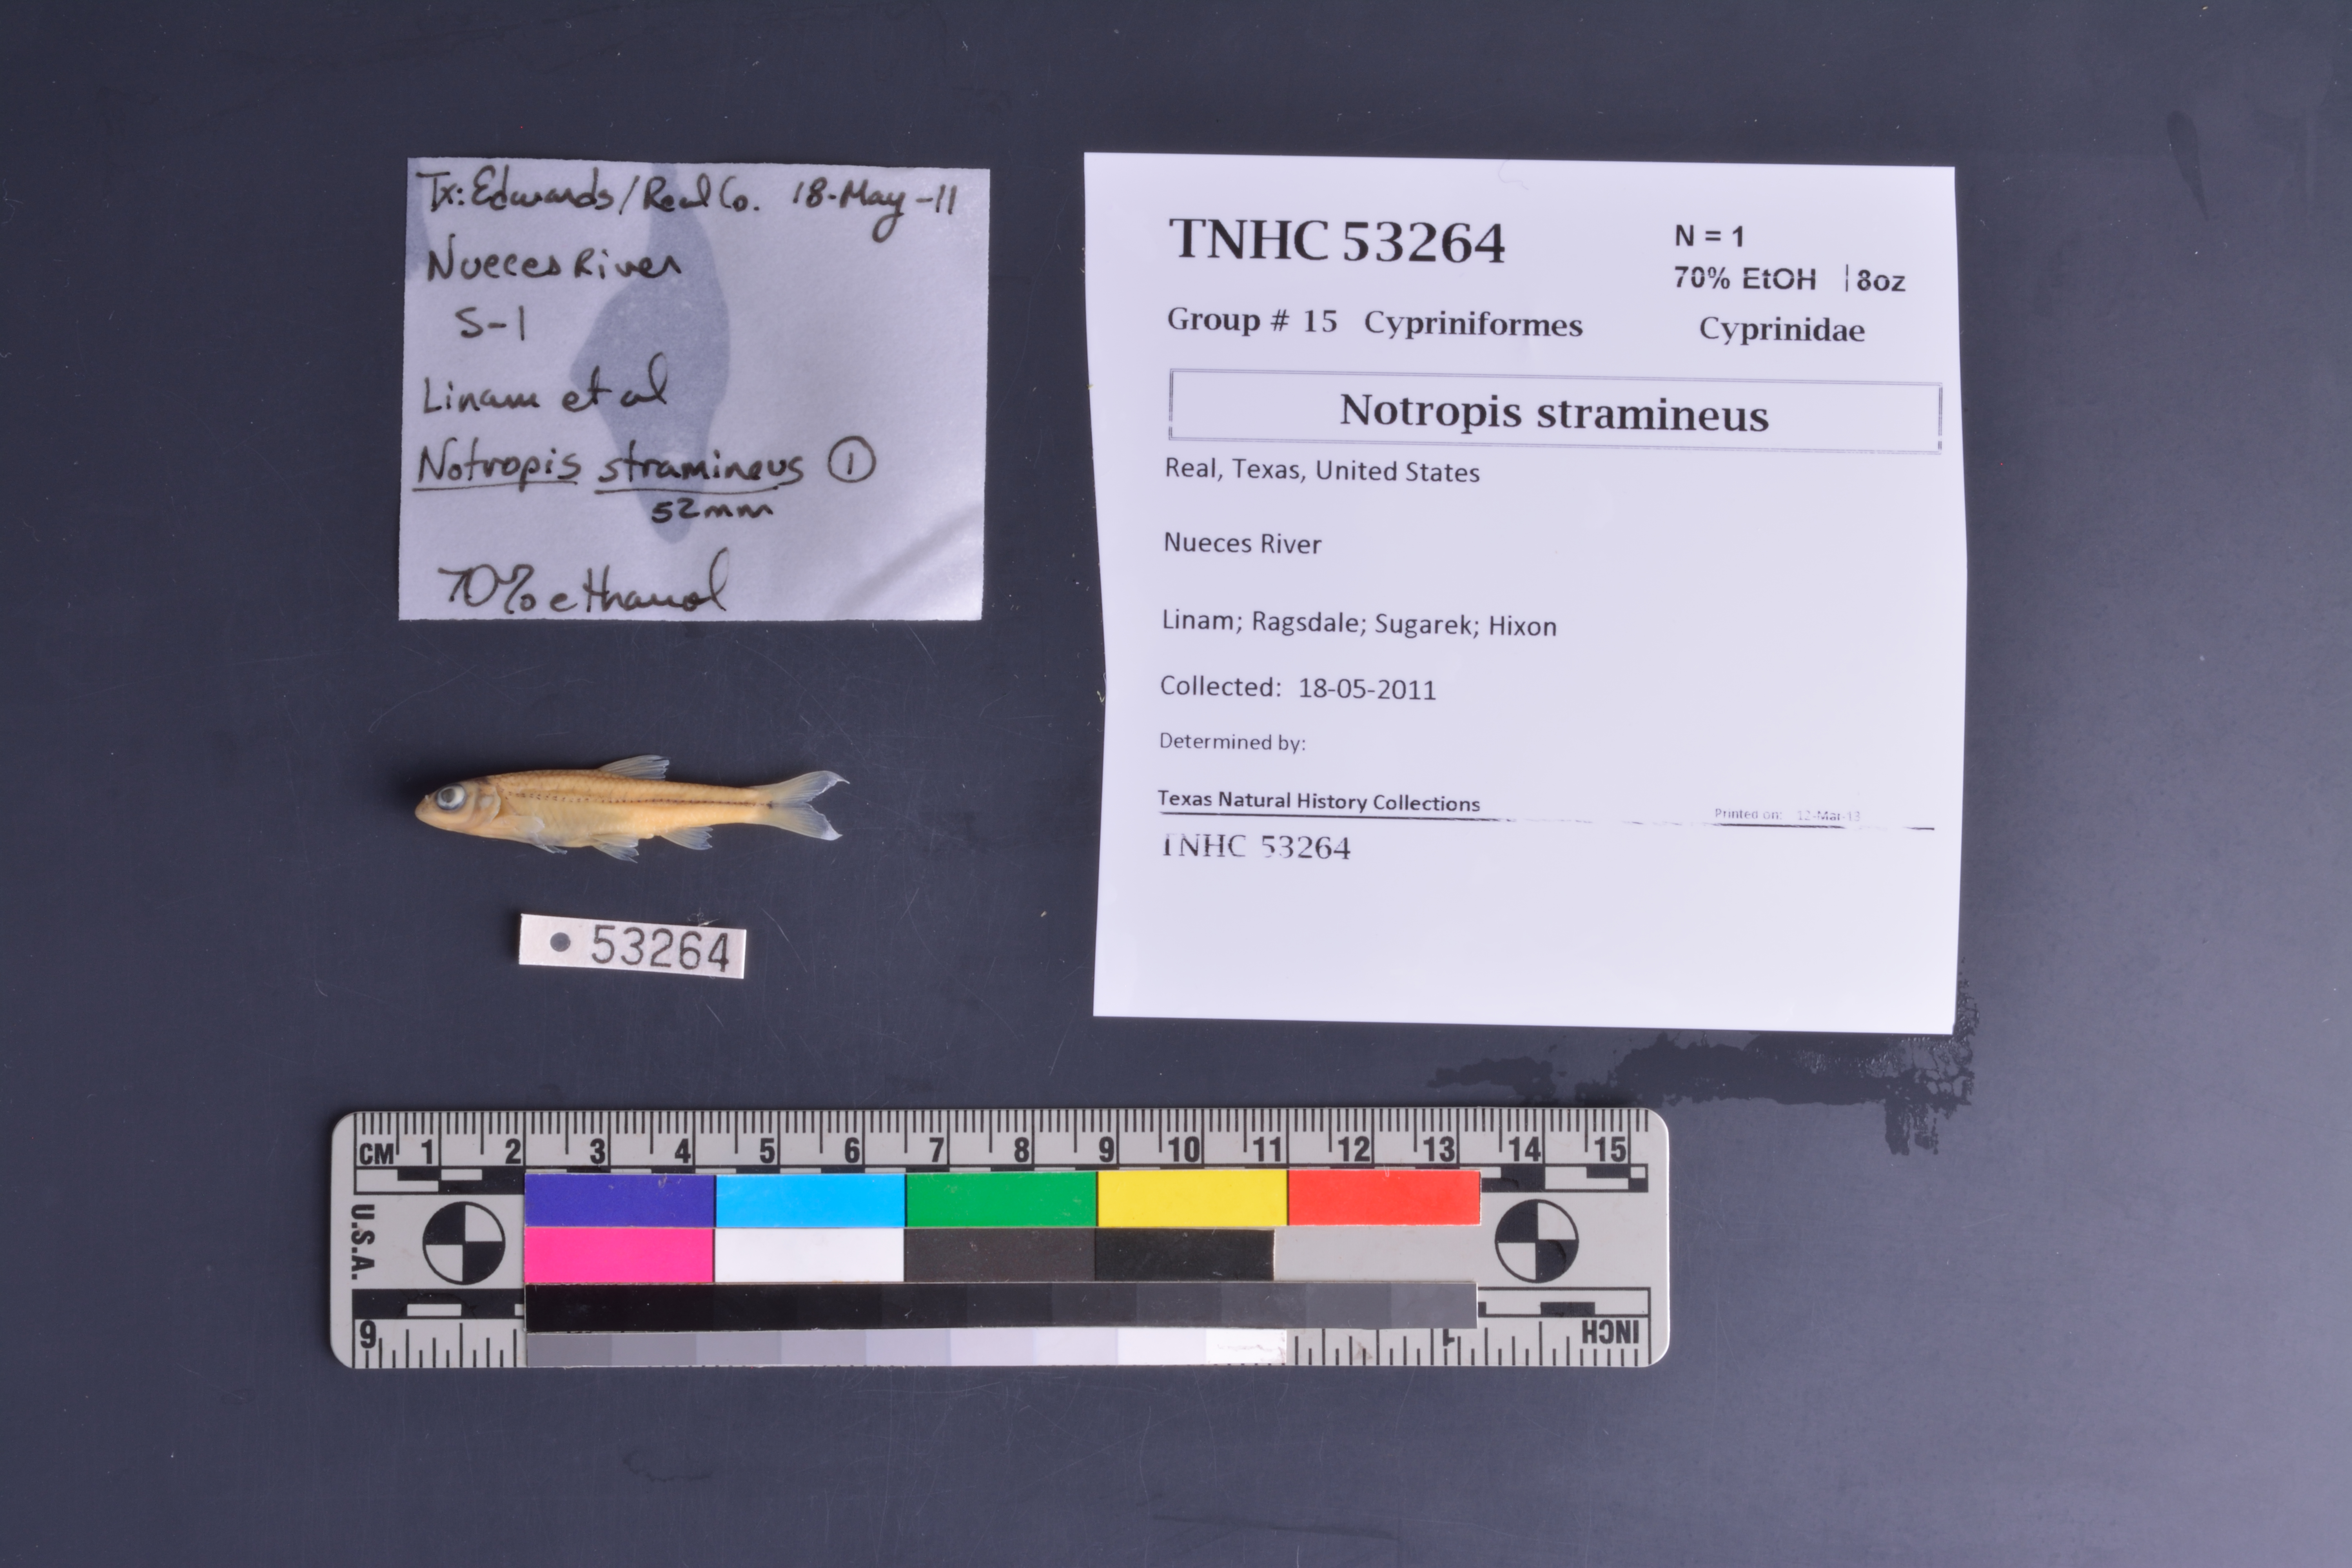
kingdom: Animalia
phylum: Chordata
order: Cypriniformes
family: Cyprinidae
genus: Notropis
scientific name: Notropis stramineus
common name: Sand shiner
